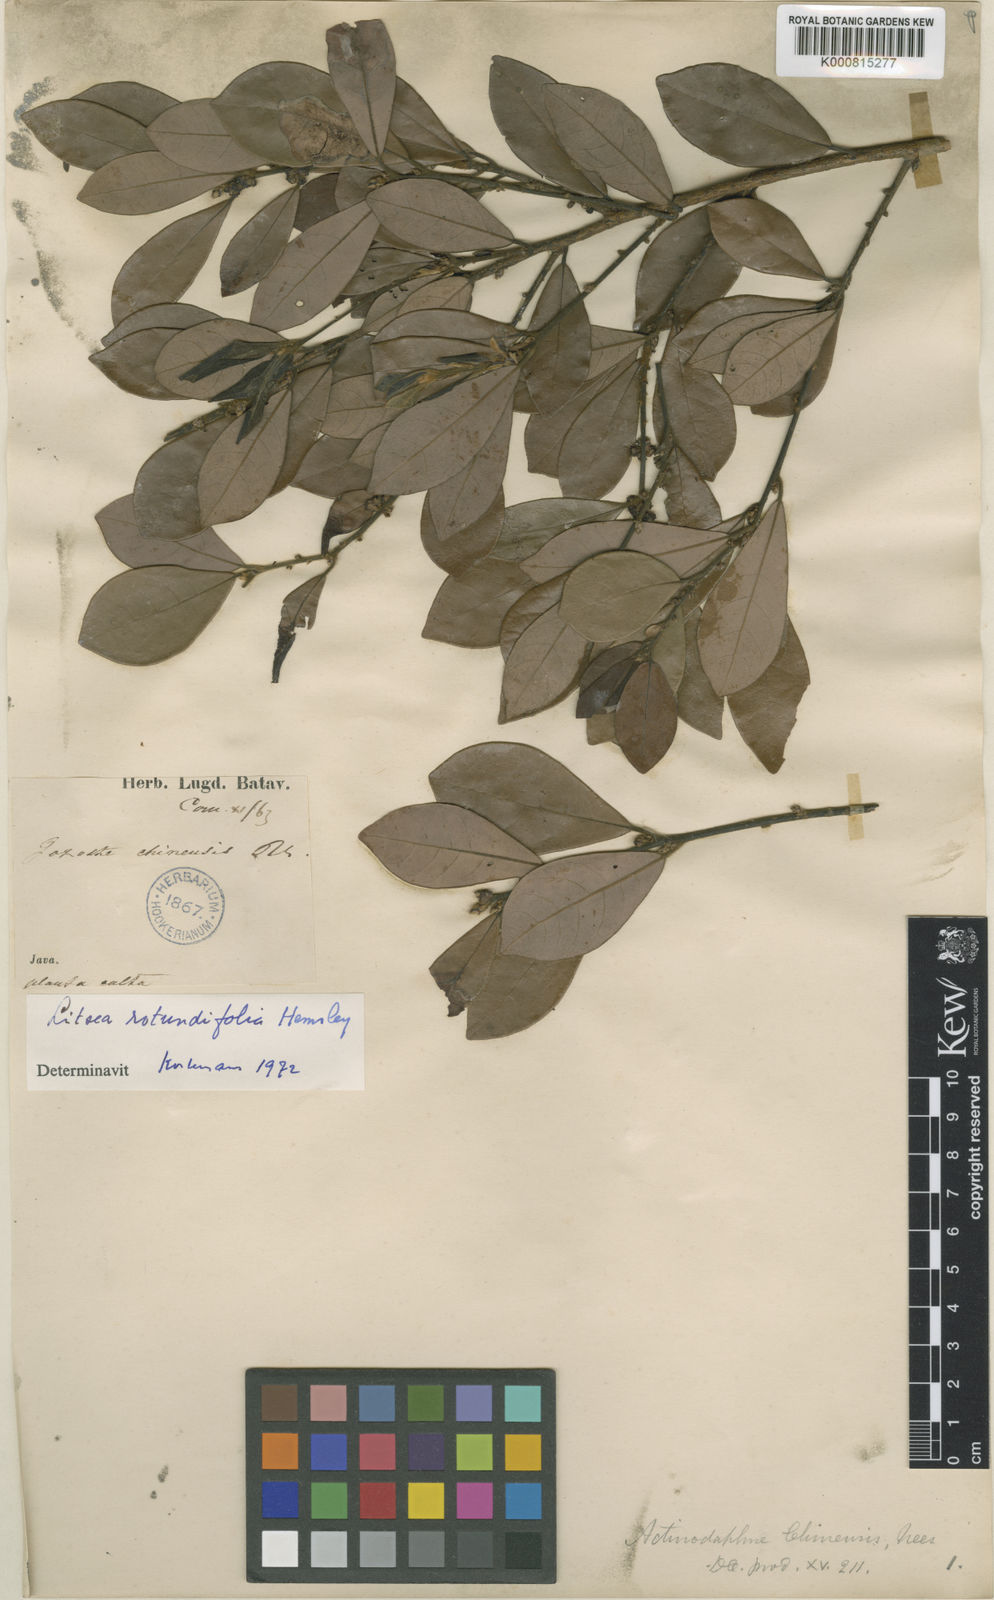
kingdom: Plantae
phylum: Tracheophyta
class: Magnoliopsida
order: Laurales
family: Lauraceae
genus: Litsea
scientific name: Litsea rotundifolia
